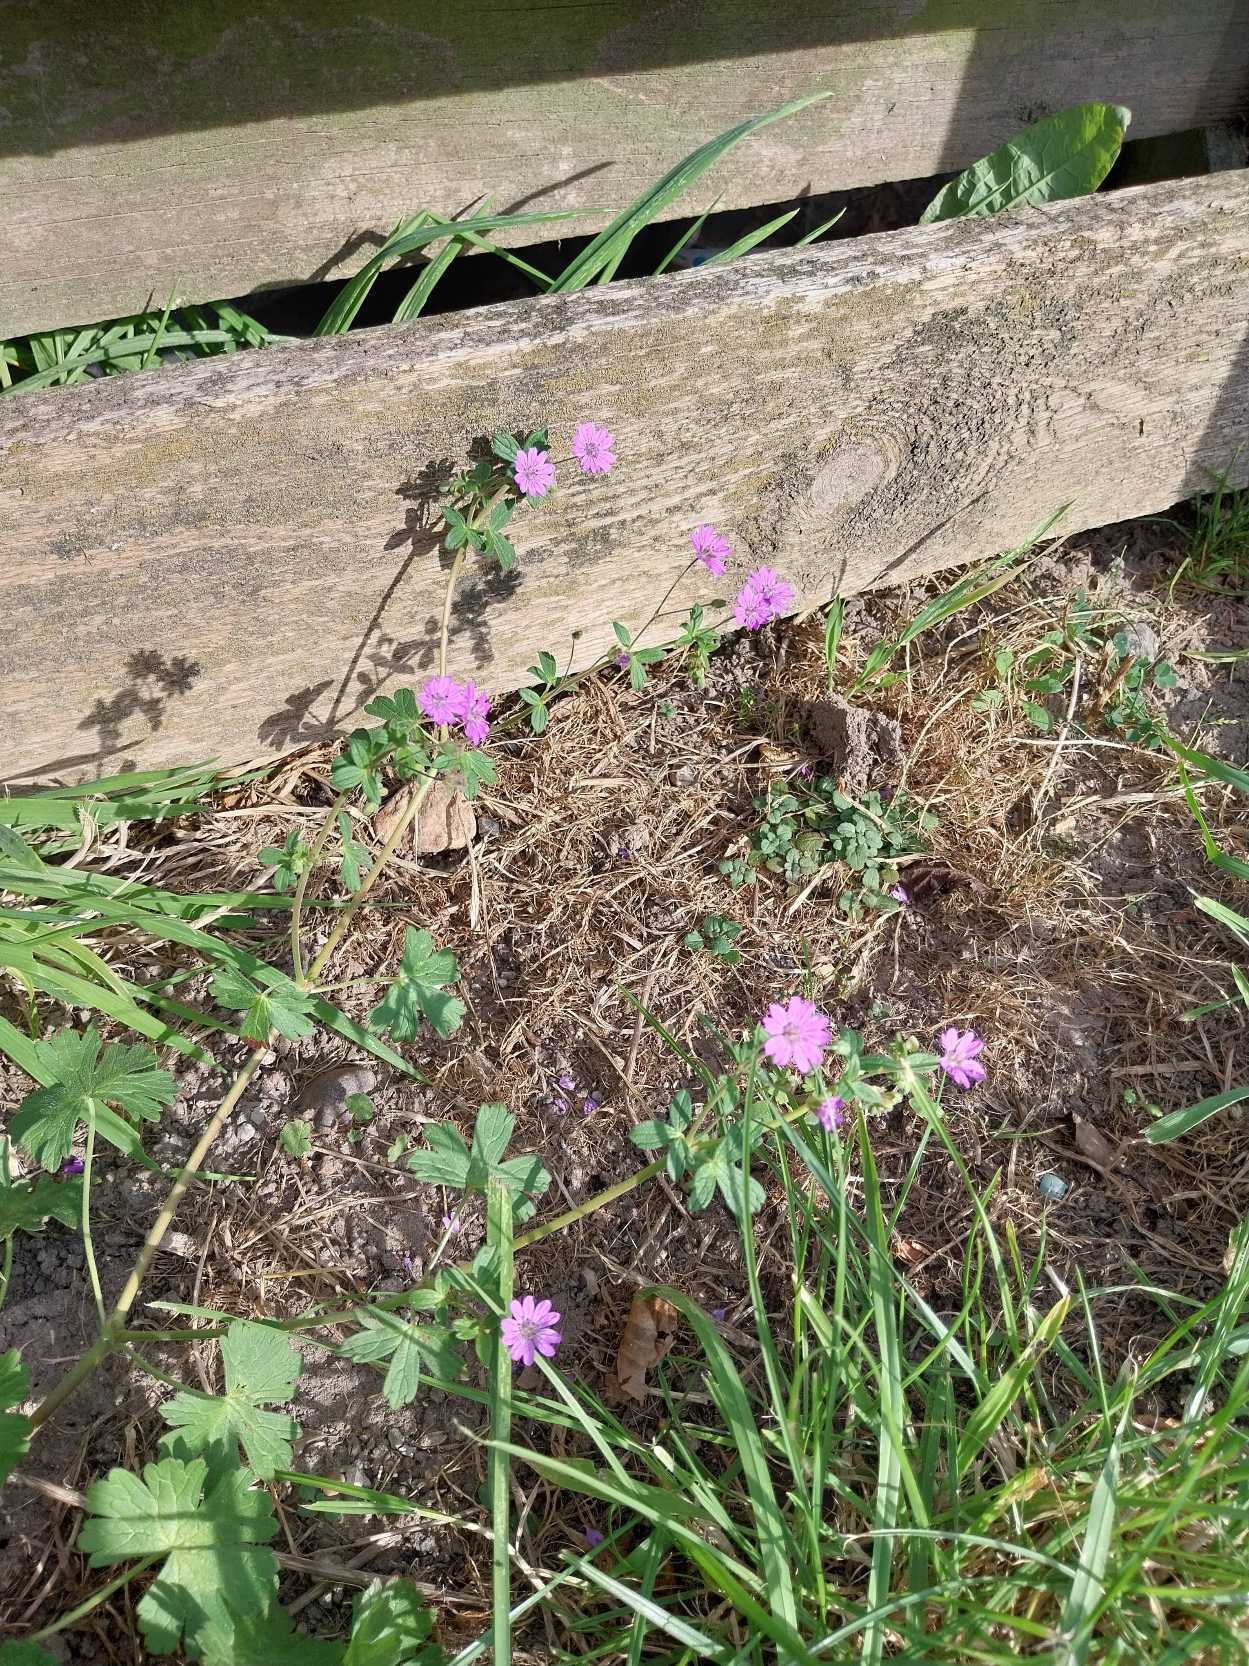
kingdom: Plantae
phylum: Tracheophyta
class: Magnoliopsida
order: Geraniales
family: Geraniaceae
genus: Geranium
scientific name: Geranium pyrenaicum
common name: Pyrenæisk storkenæb
